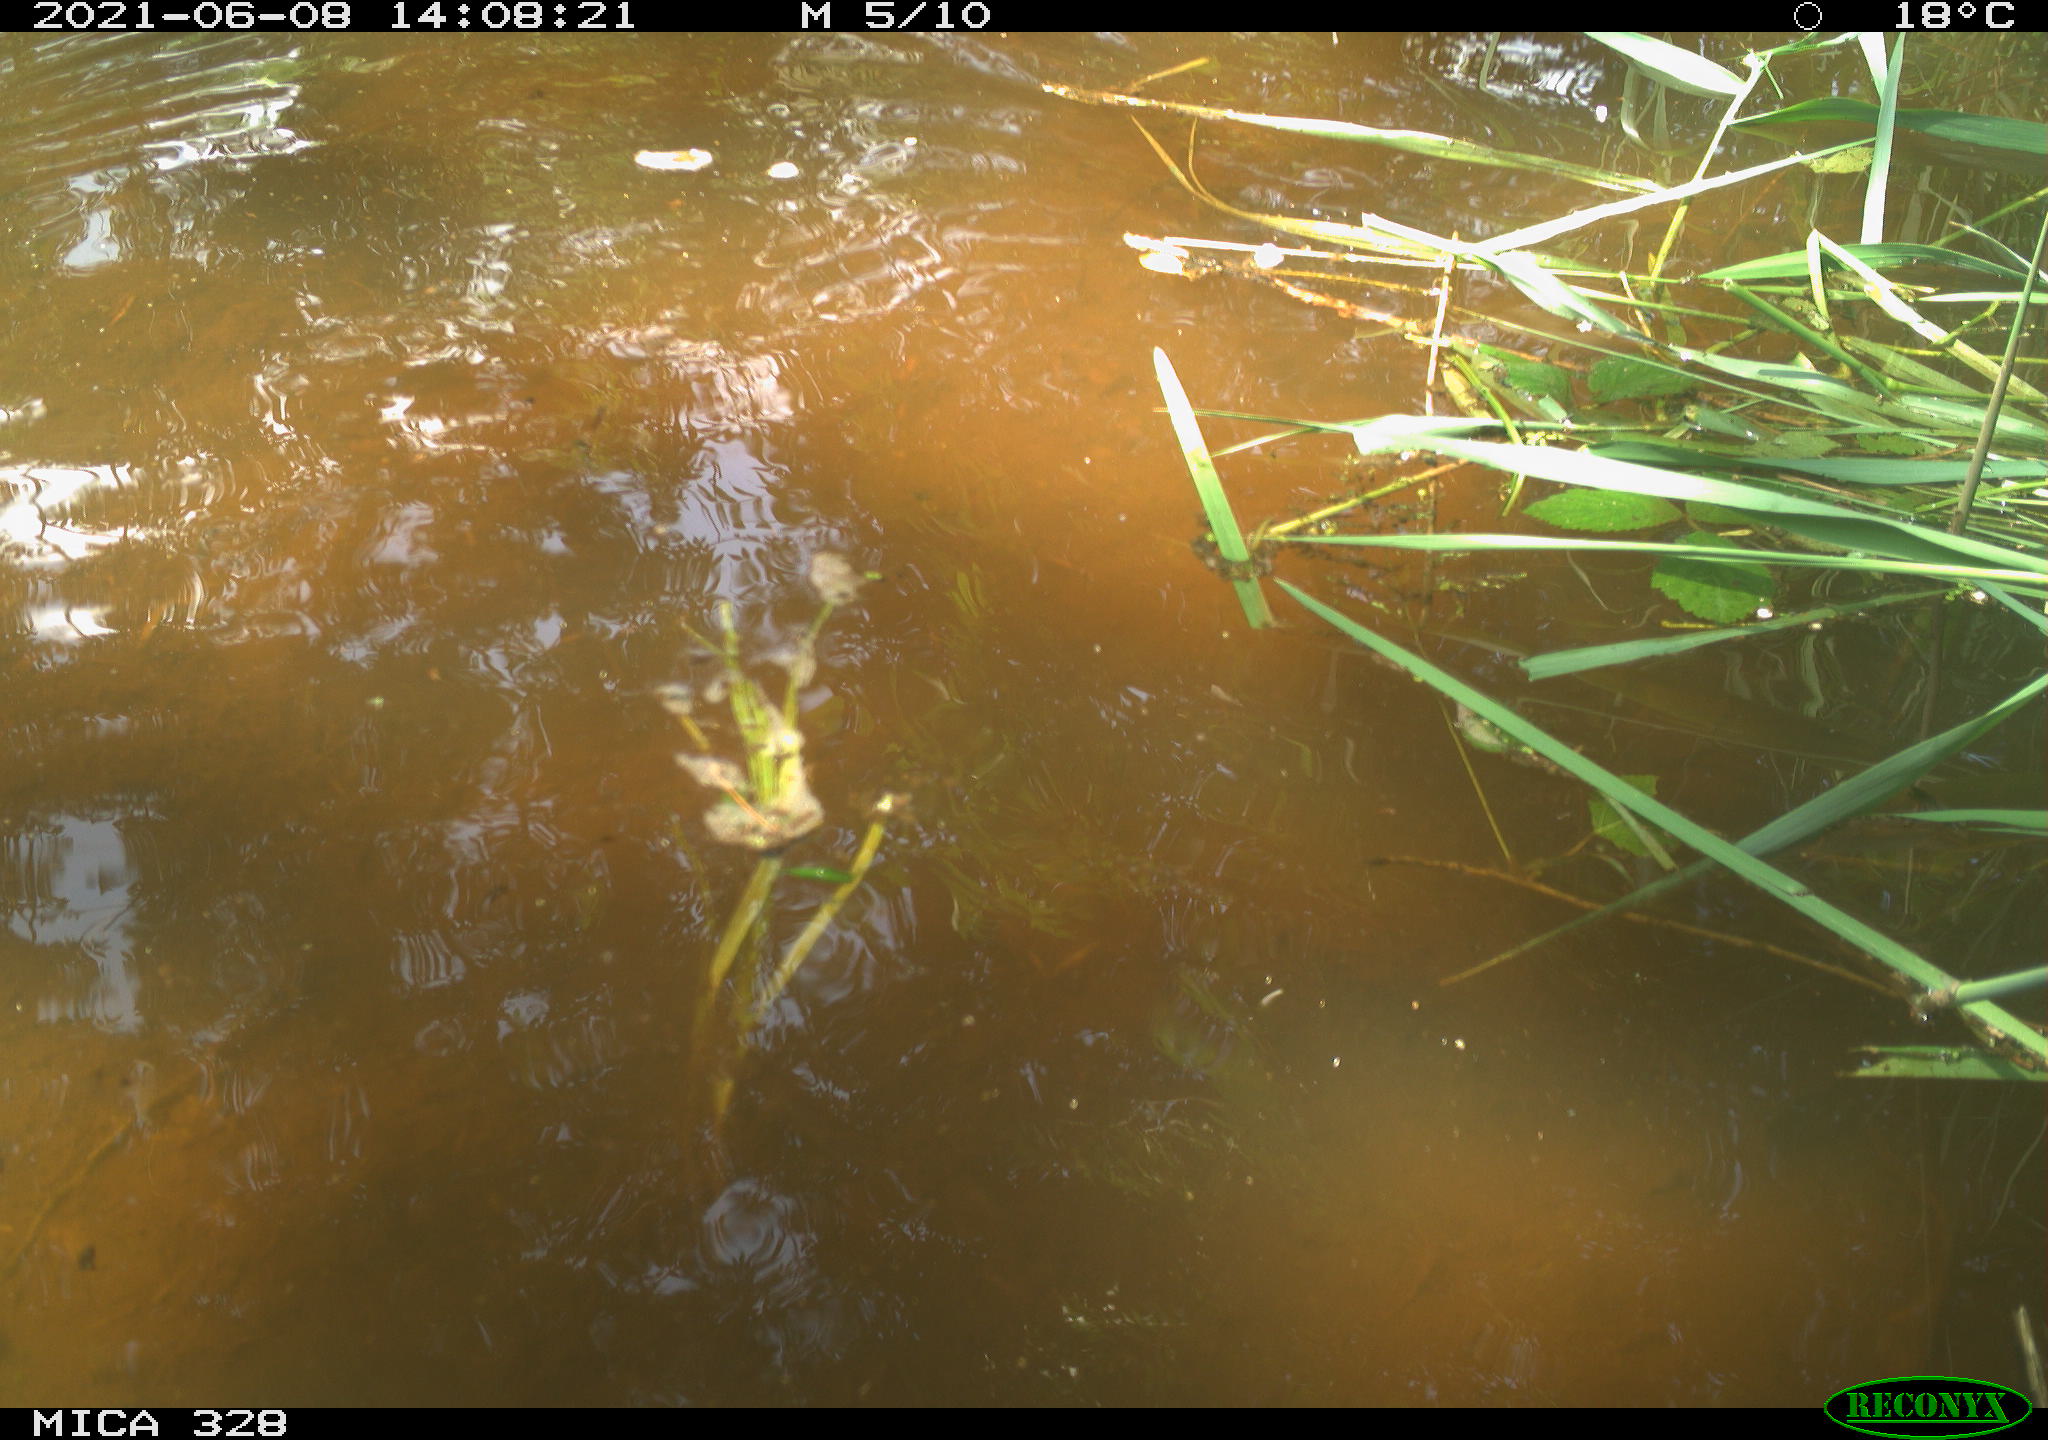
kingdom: Animalia
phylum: Chordata
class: Aves
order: Anseriformes
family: Anatidae
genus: Aix
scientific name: Aix galericulata
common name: Mandarin duck
